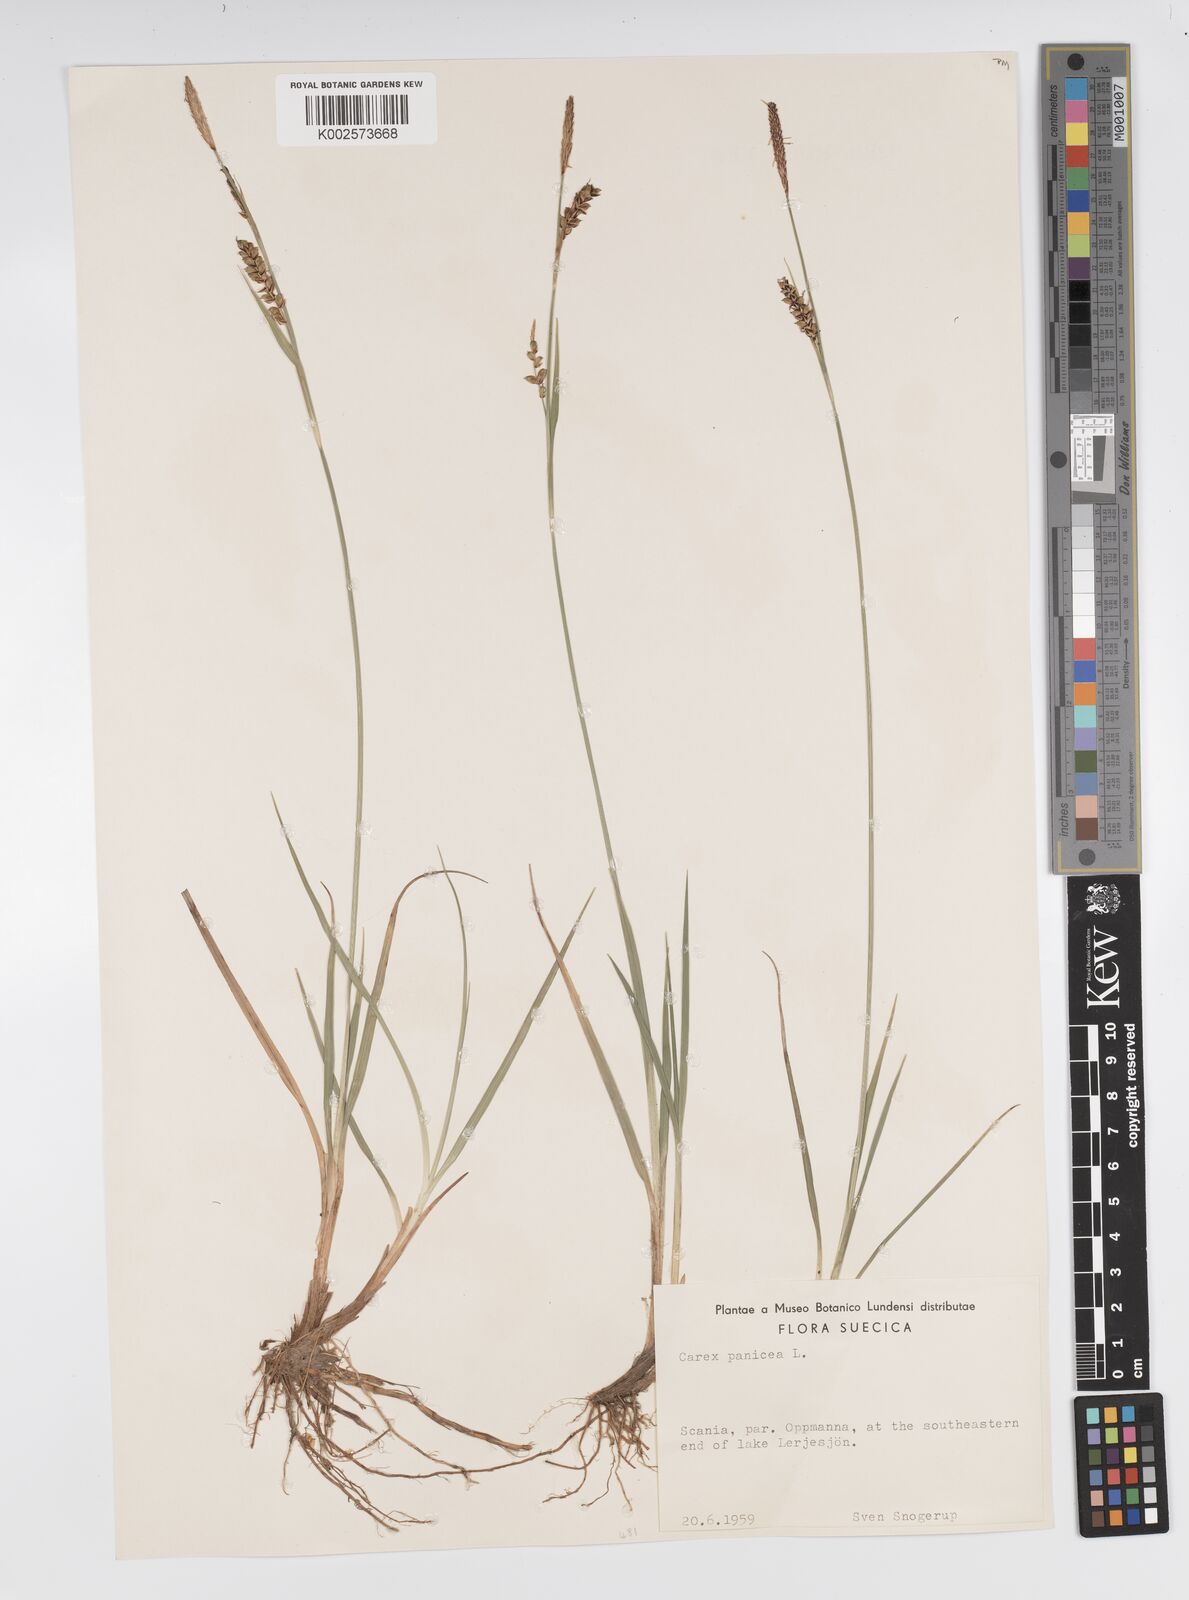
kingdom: Plantae
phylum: Tracheophyta
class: Liliopsida
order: Poales
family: Cyperaceae
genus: Carex
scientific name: Carex panicea
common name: Carnation sedge
